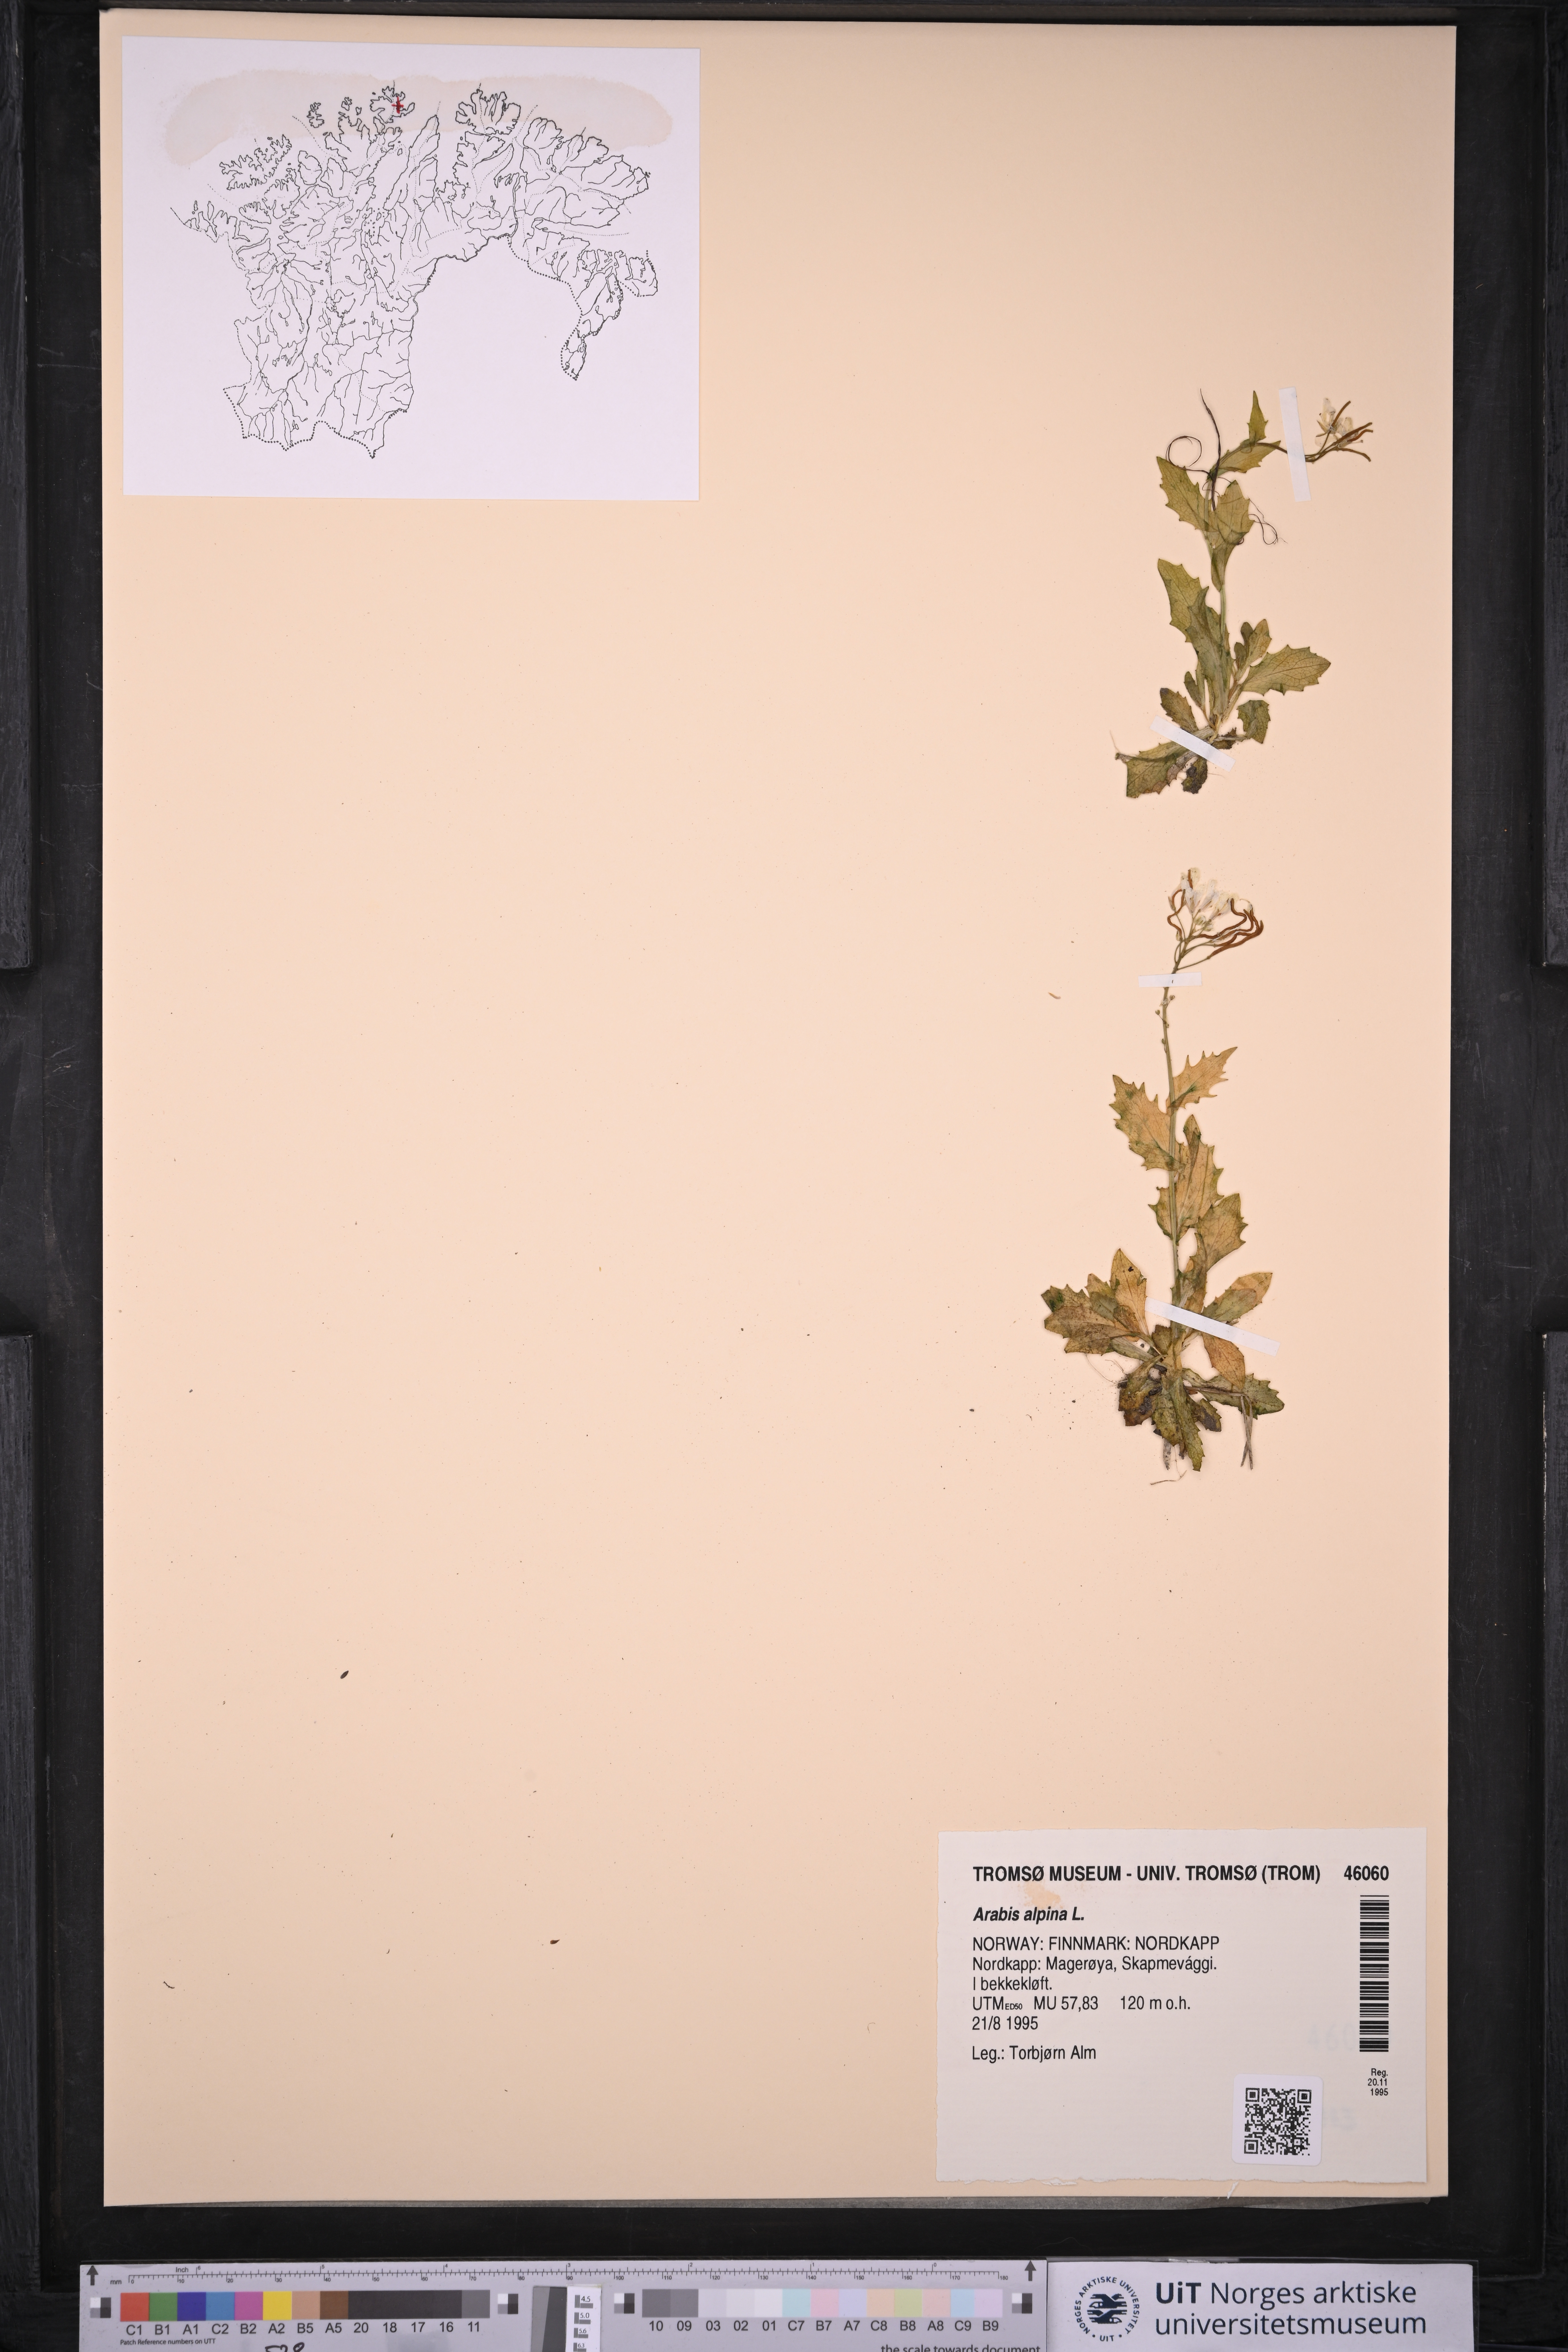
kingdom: Plantae
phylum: Tracheophyta
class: Magnoliopsida
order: Brassicales
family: Brassicaceae
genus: Arabis
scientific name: Arabis alpina
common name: Alpine rock-cress
